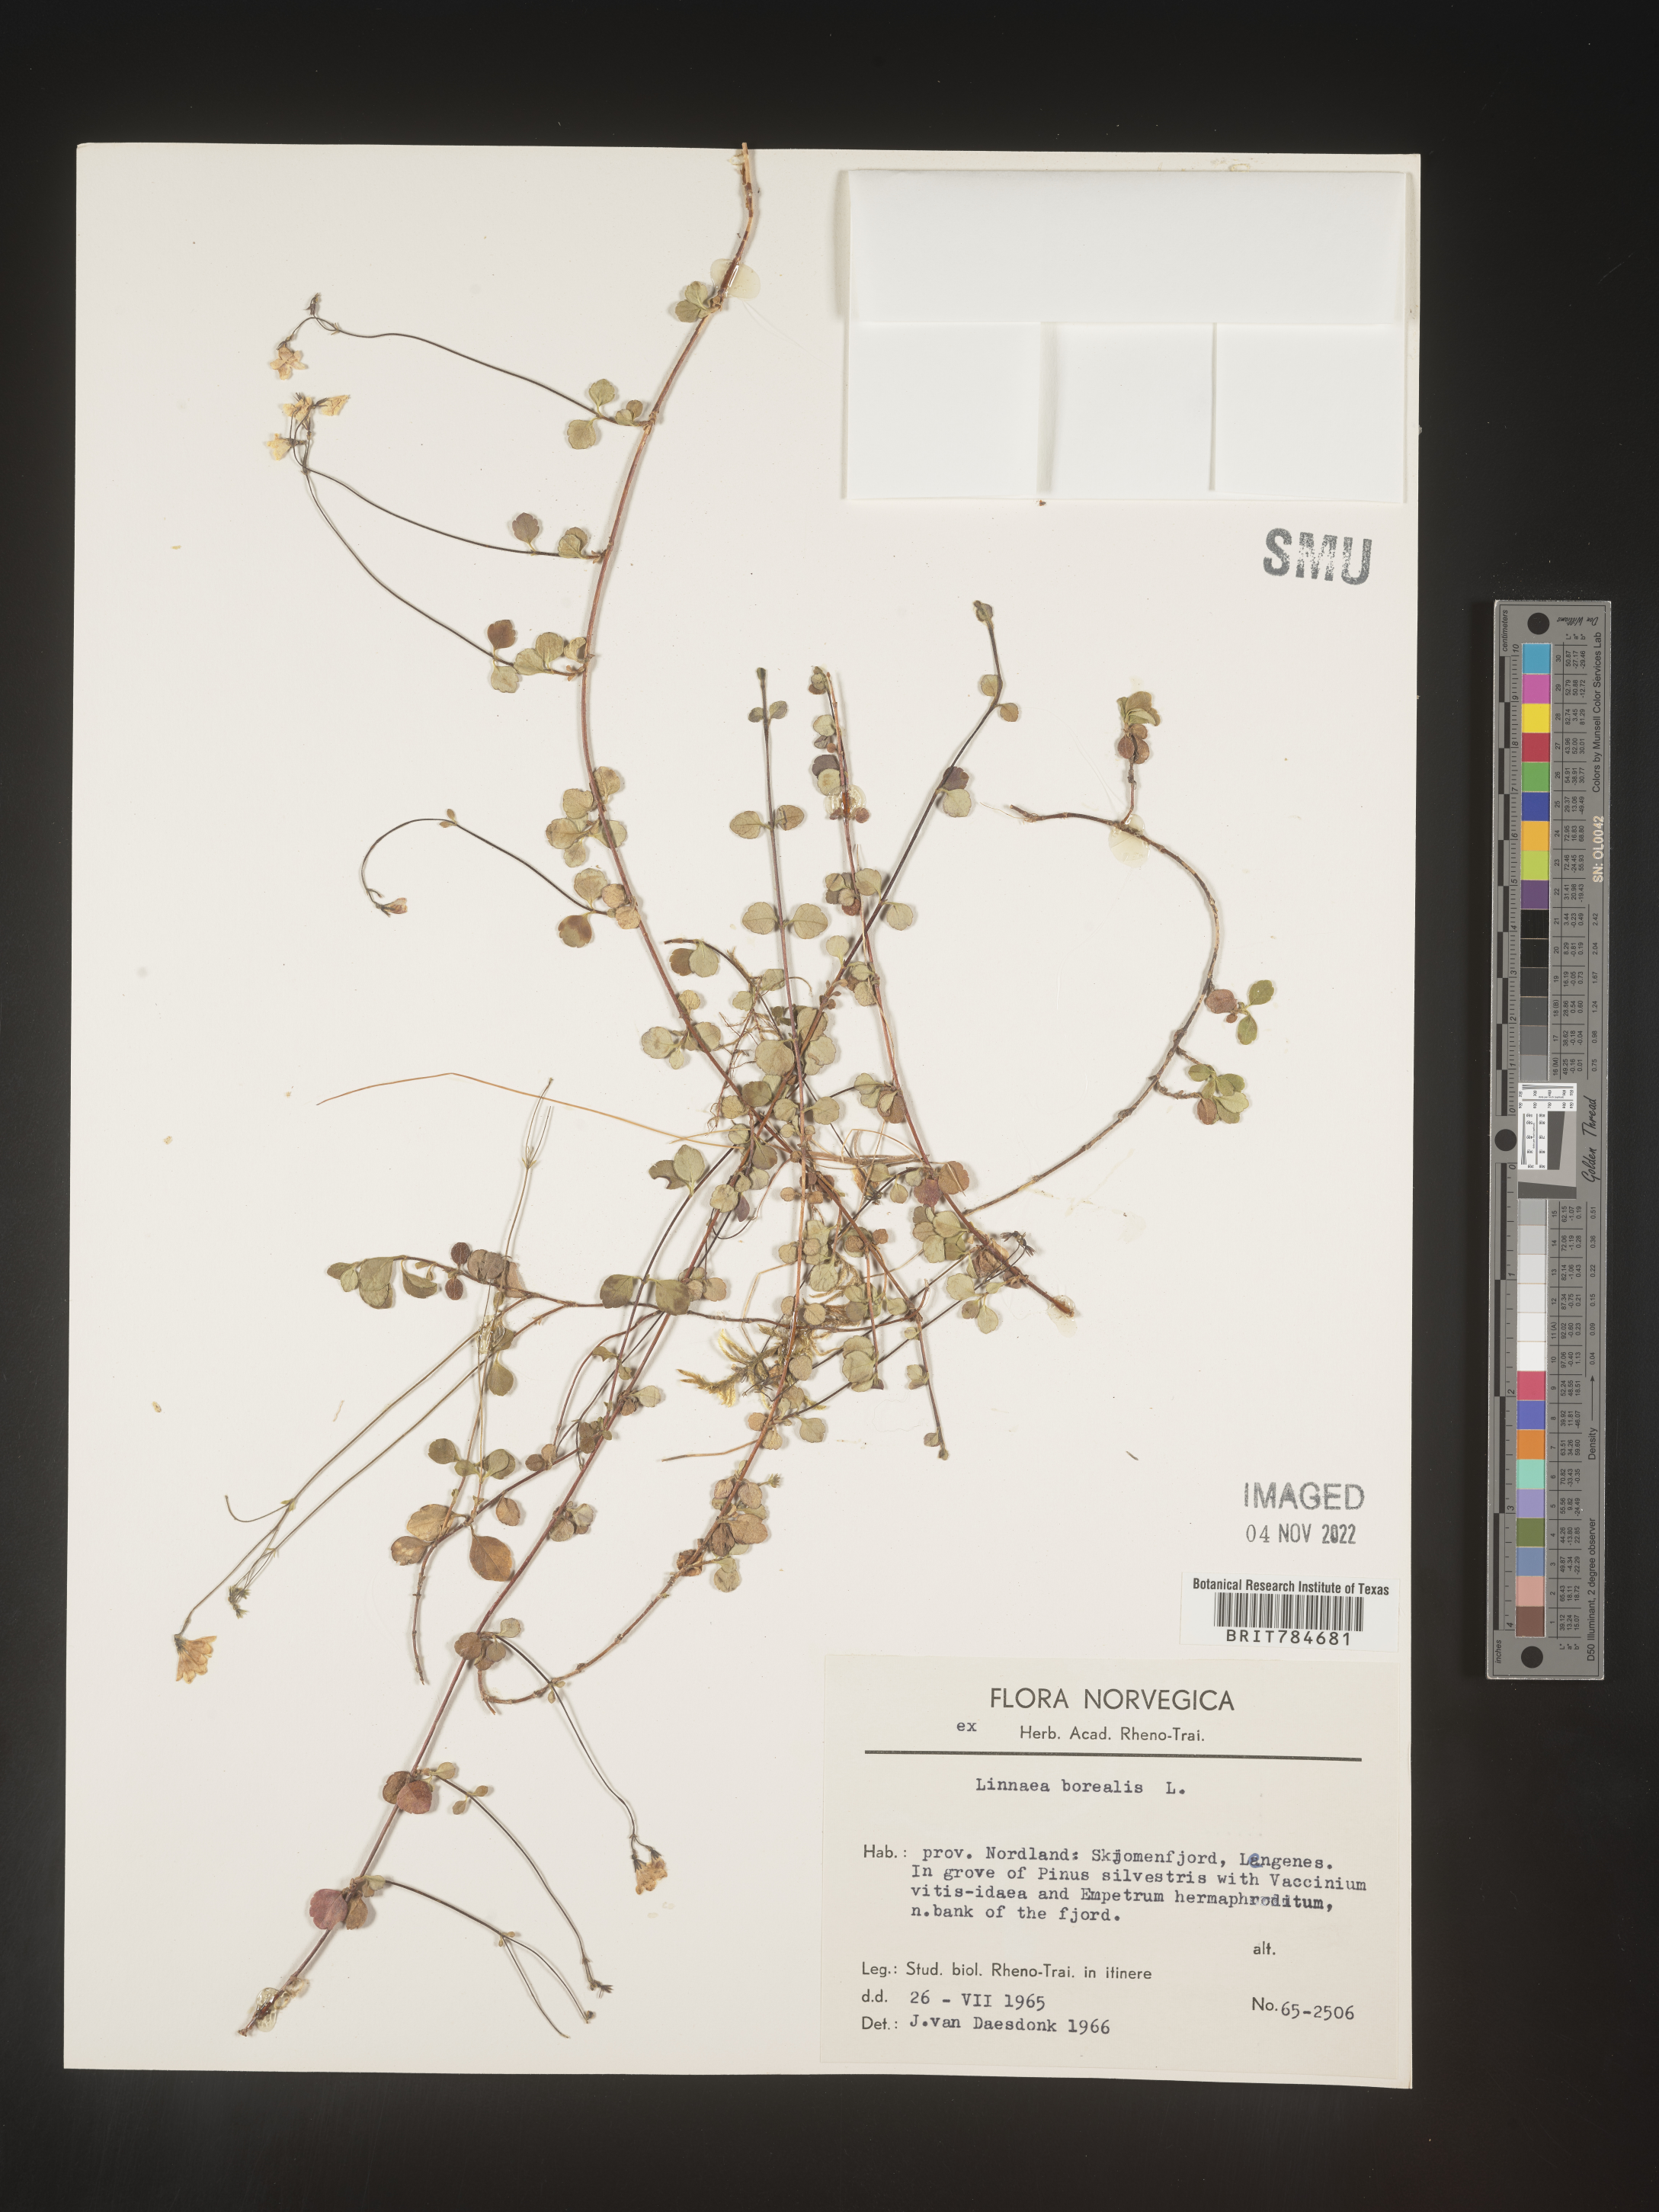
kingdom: Plantae
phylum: Tracheophyta
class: Magnoliopsida
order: Dipsacales
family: Caprifoliaceae
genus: Linnaea
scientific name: Linnaea
